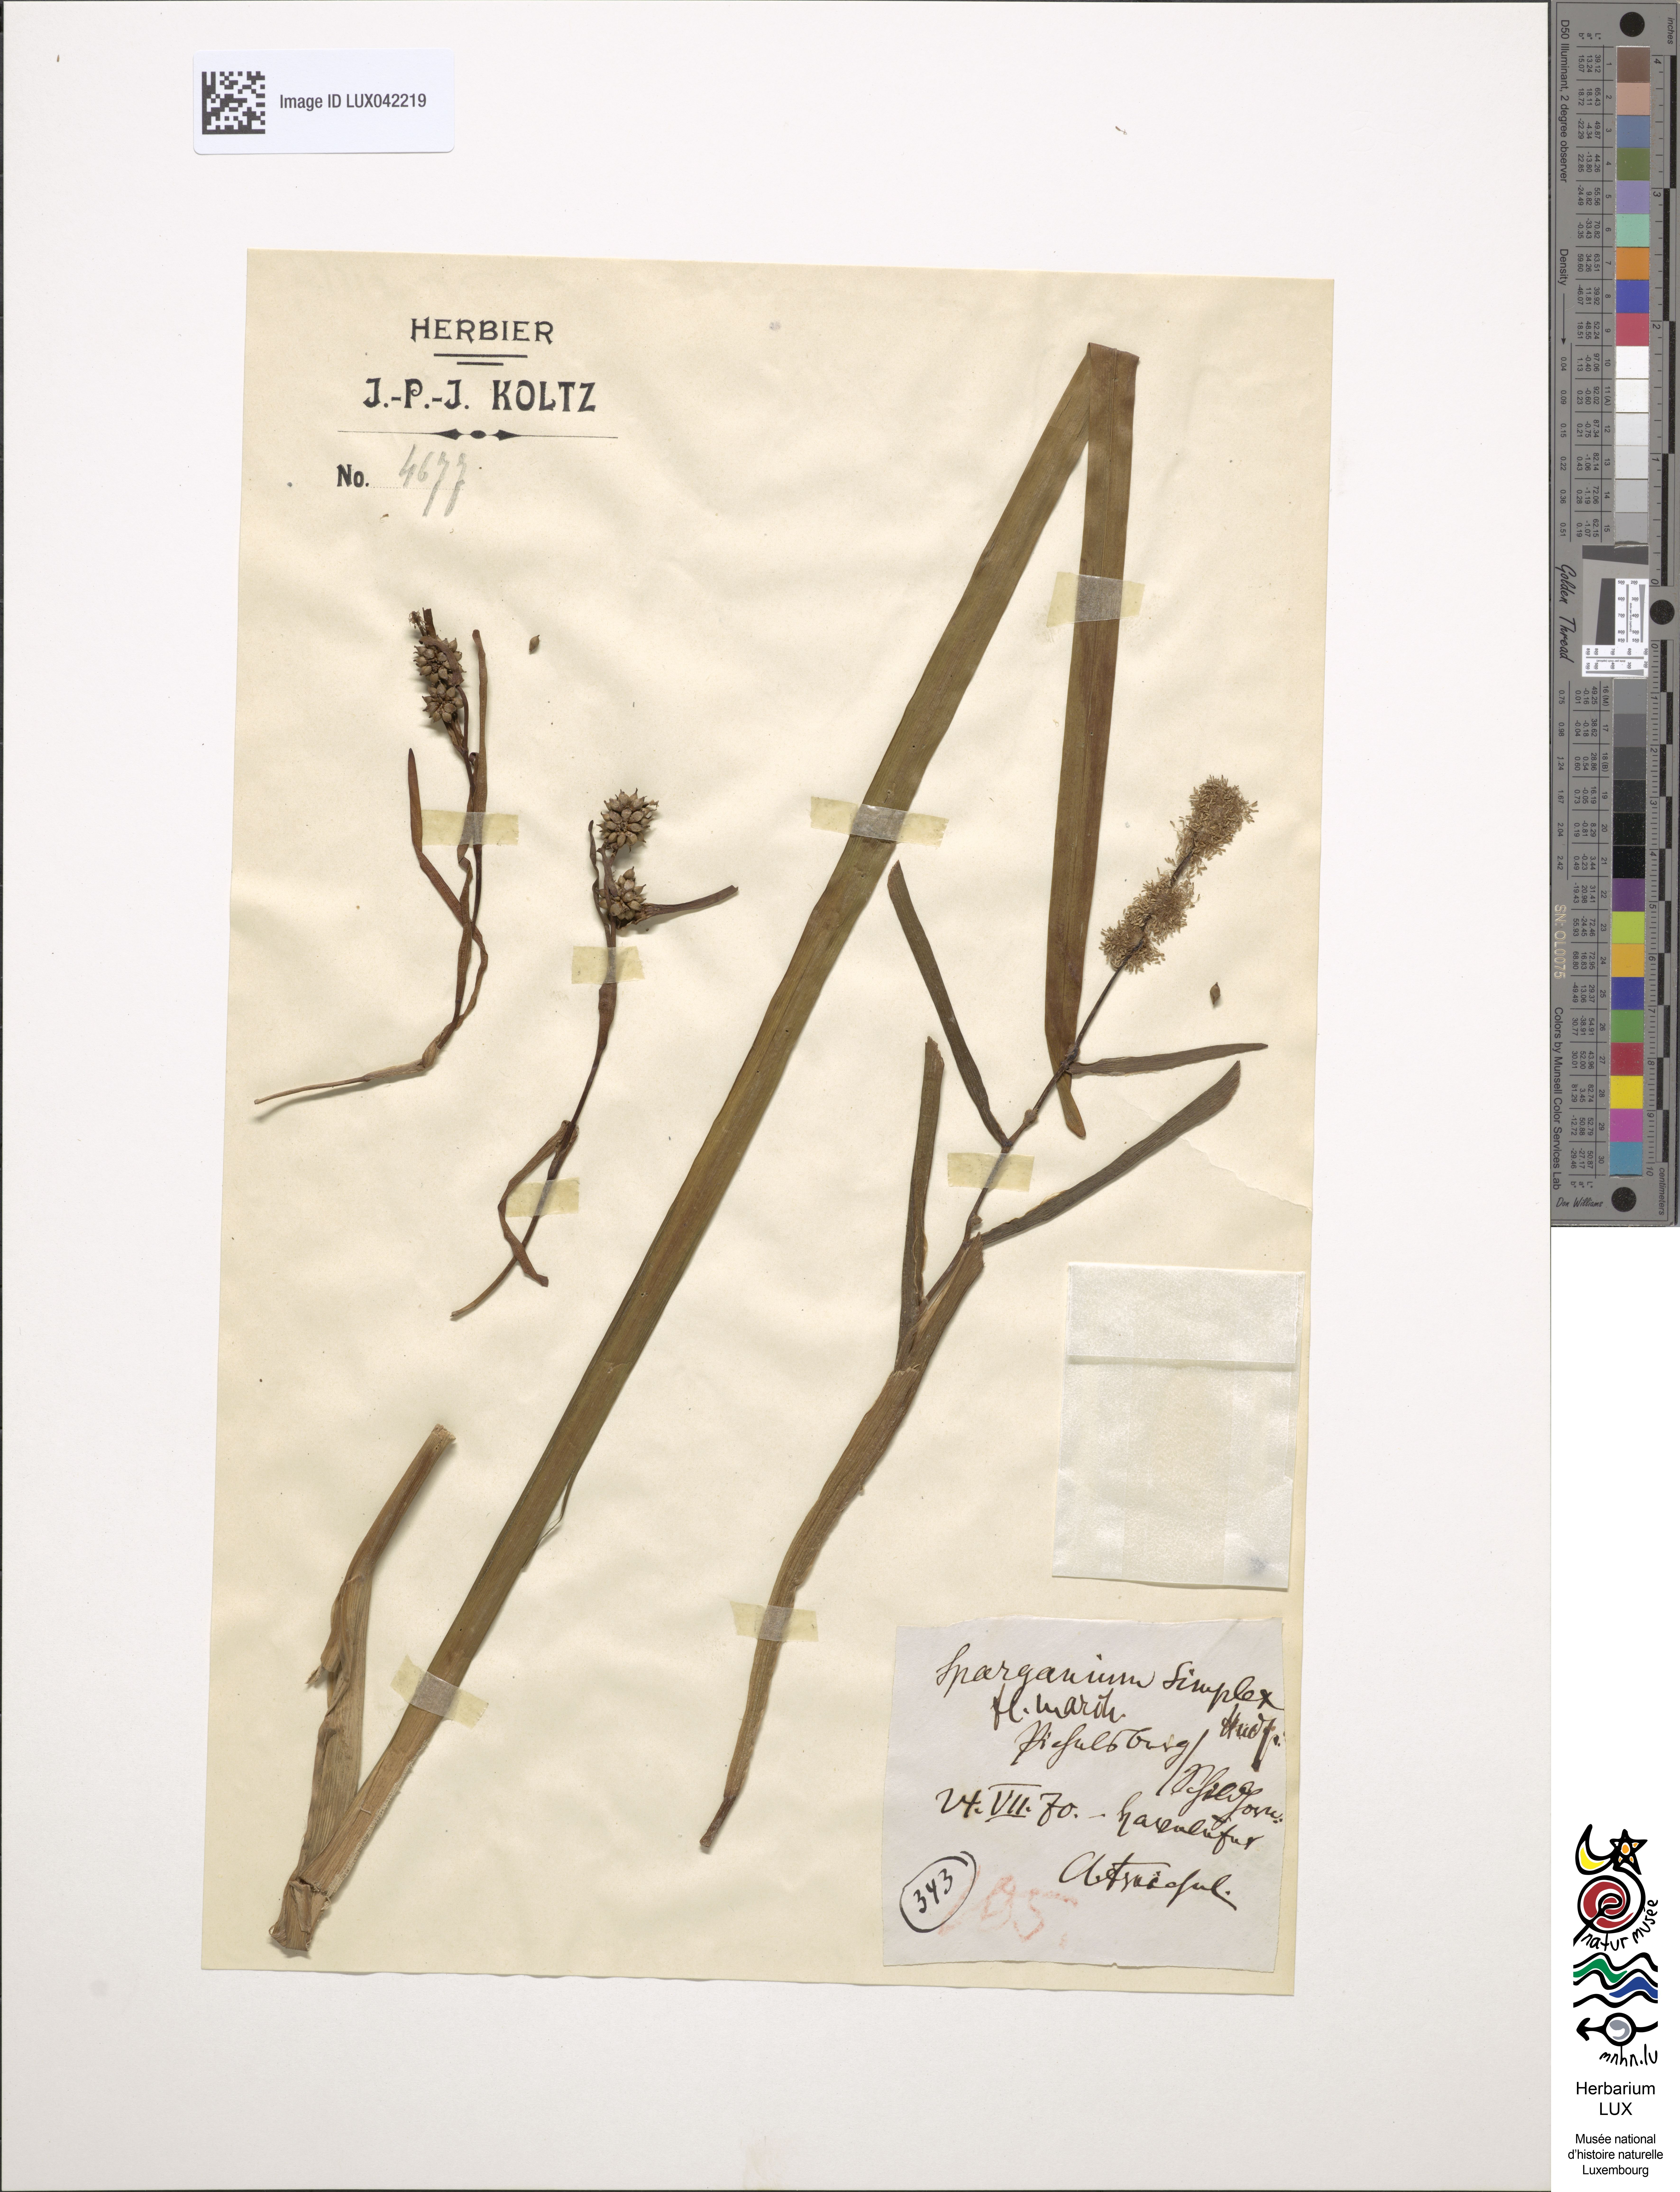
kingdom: Plantae
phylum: Tracheophyta
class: Liliopsida
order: Poales
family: Typhaceae
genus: Sparganium
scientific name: Sparganium emersum
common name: Unbranched bur-reed
